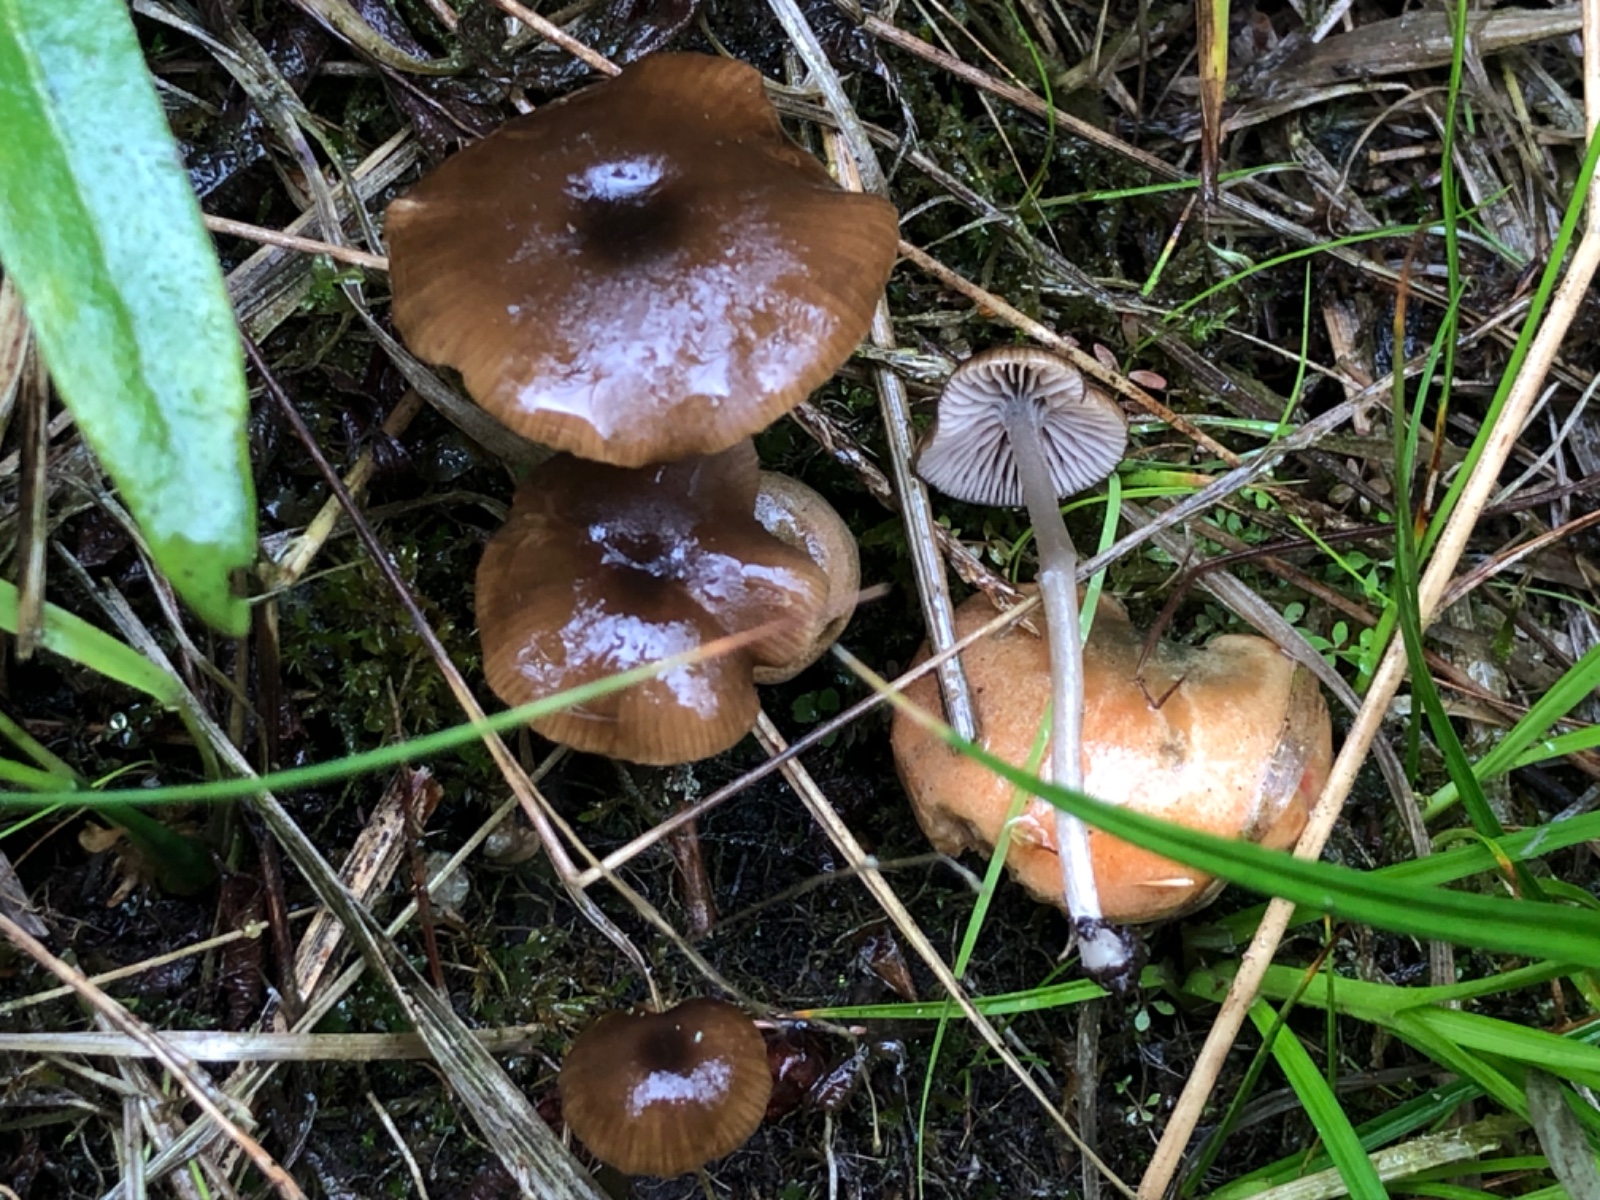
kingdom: Fungi
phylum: Basidiomycota
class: Agaricomycetes
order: Agaricales
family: Entolomataceae
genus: Entoloma
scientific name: Entoloma cocles
